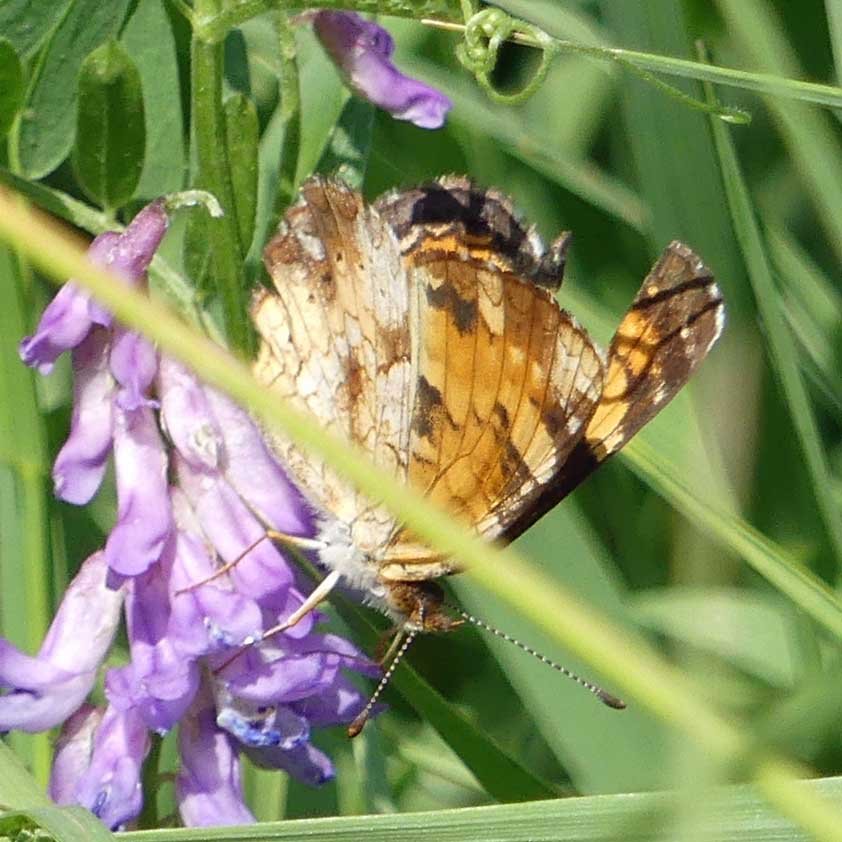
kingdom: Animalia
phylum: Arthropoda
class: Insecta
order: Lepidoptera
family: Nymphalidae
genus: Phyciodes
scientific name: Phyciodes tharos
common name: Pearl Crescent
